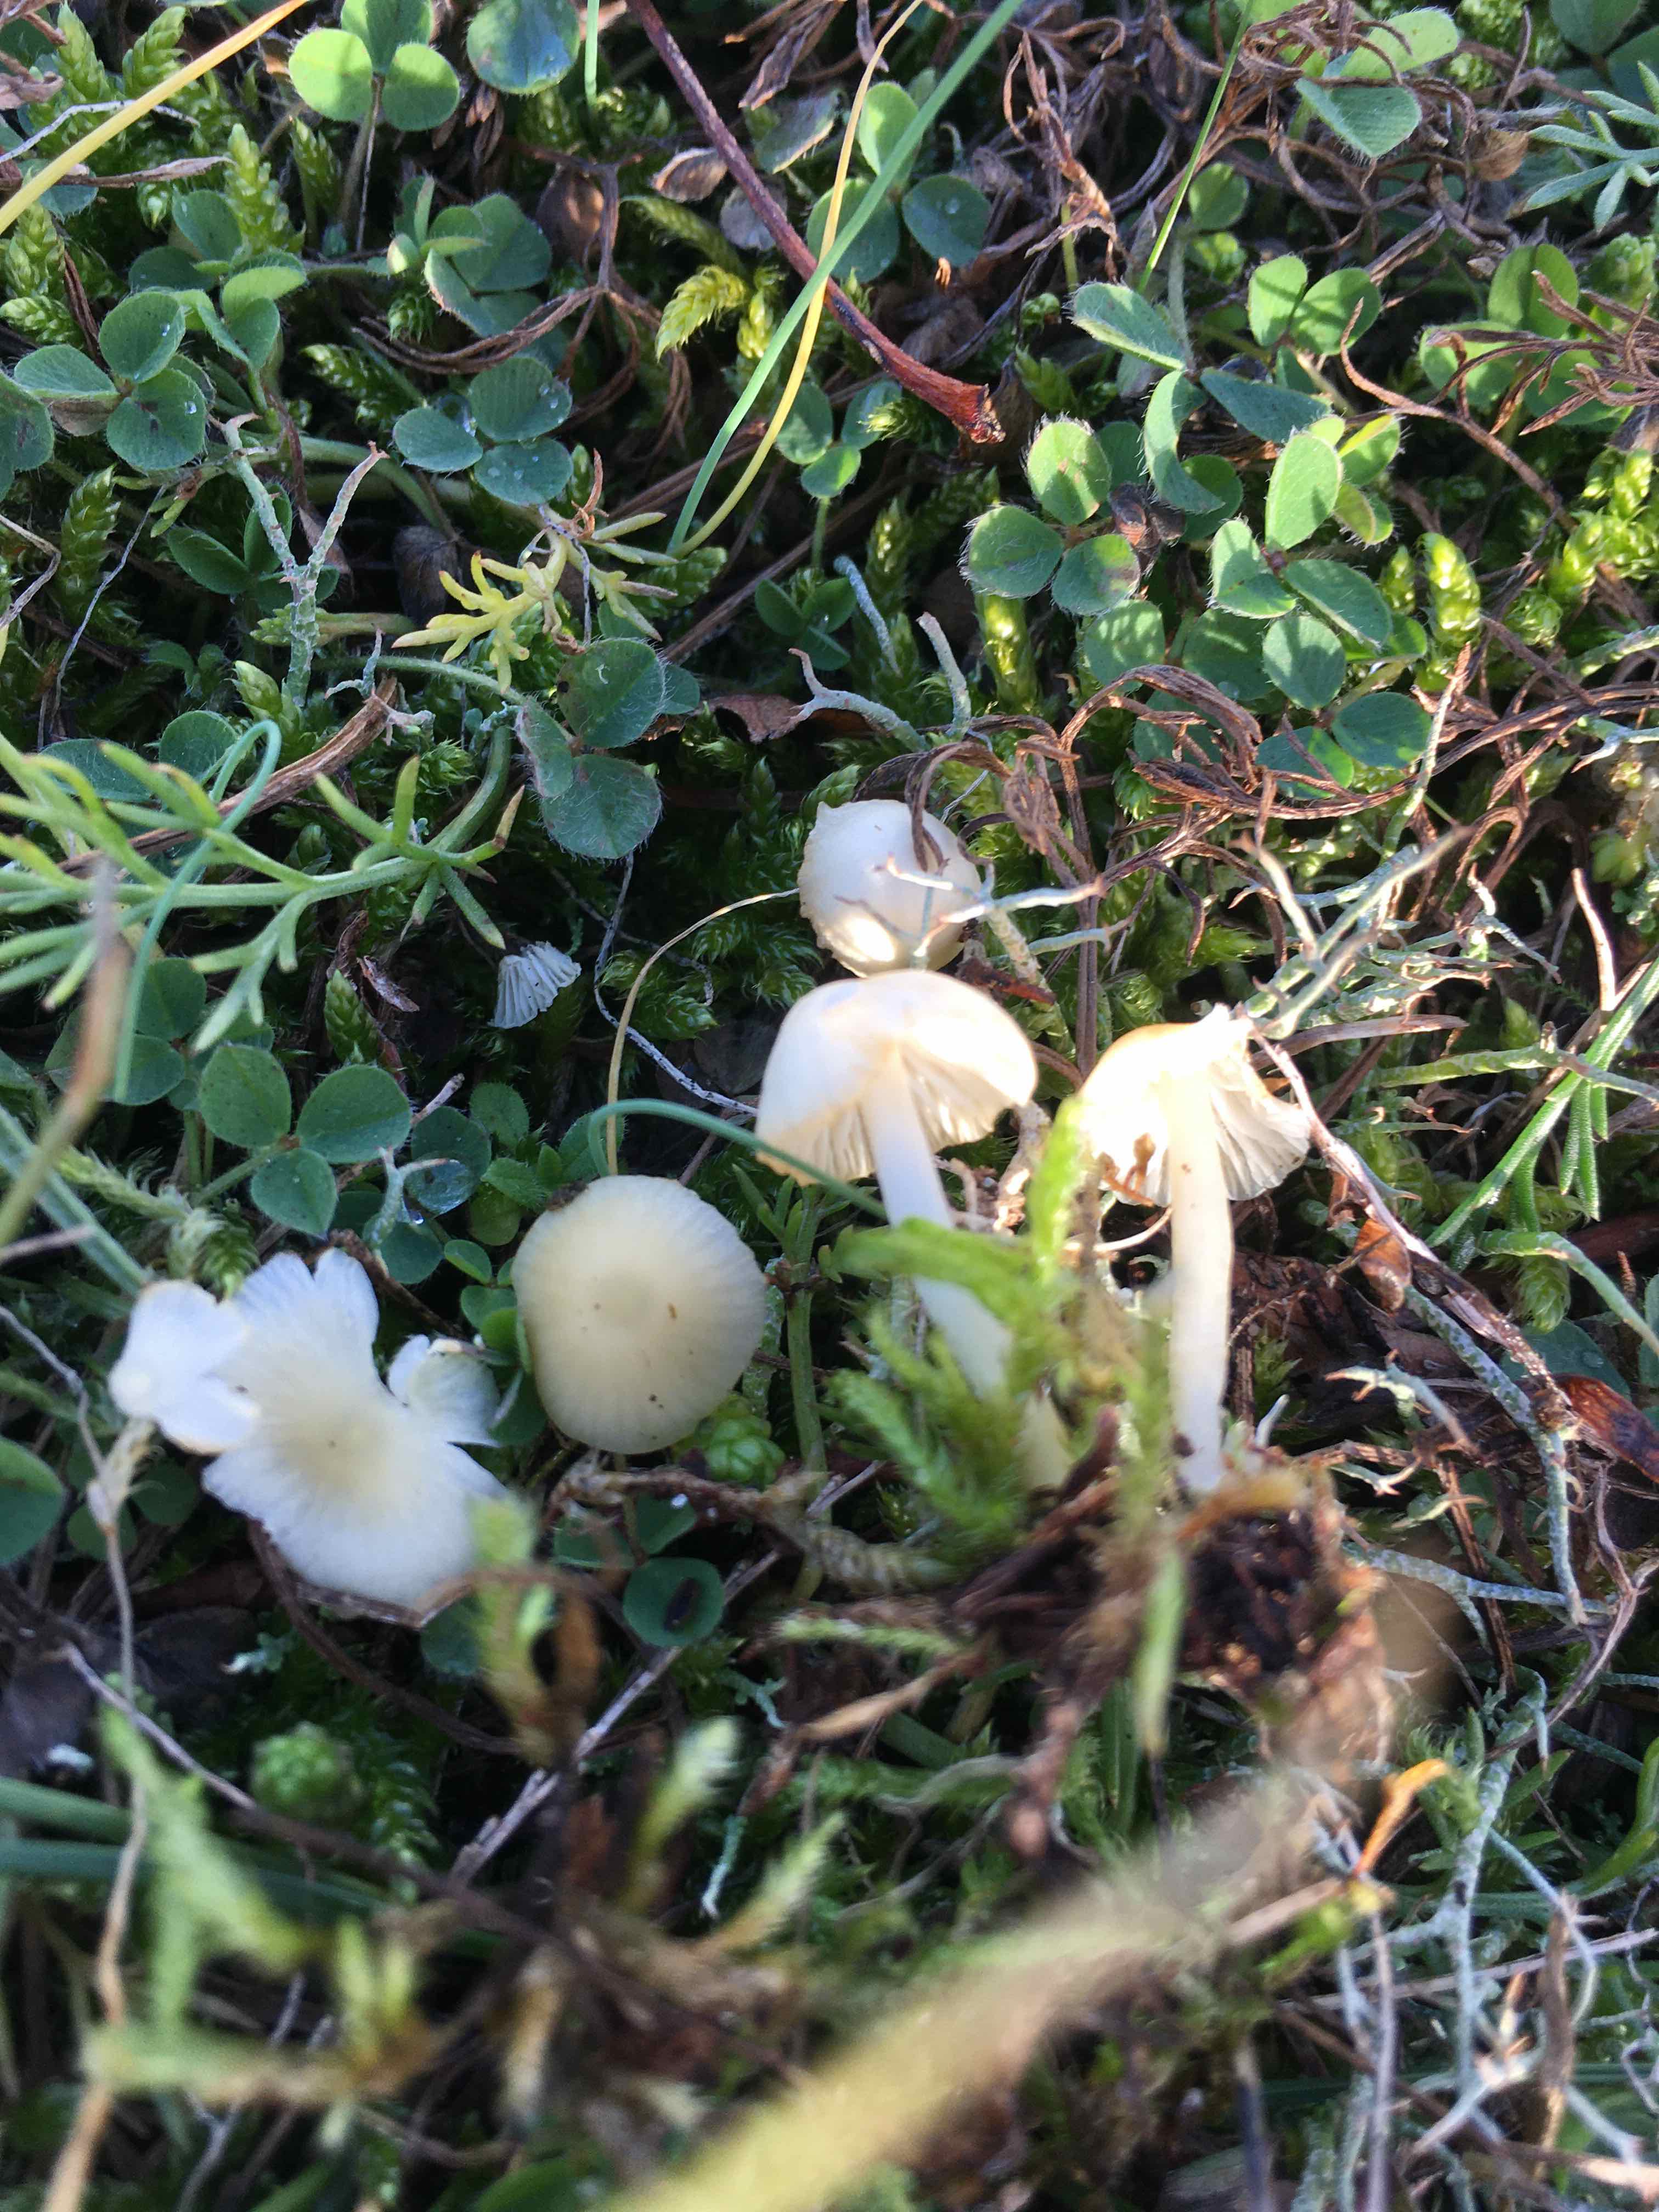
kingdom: Fungi
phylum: Basidiomycota
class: Agaricomycetes
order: Agaricales
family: Mycenaceae
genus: Atheniella
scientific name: Atheniella flavoalba
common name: gulhvid huesvamp
